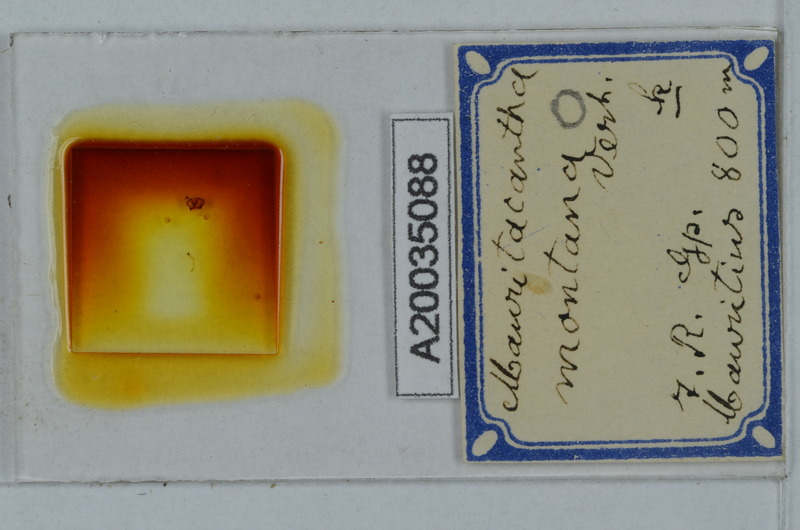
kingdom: Animalia
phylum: Arthropoda
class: Diplopoda
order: Polydesmida
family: Trichopolydesmidae
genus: Mauritacantha
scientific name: Mauritacantha montana
